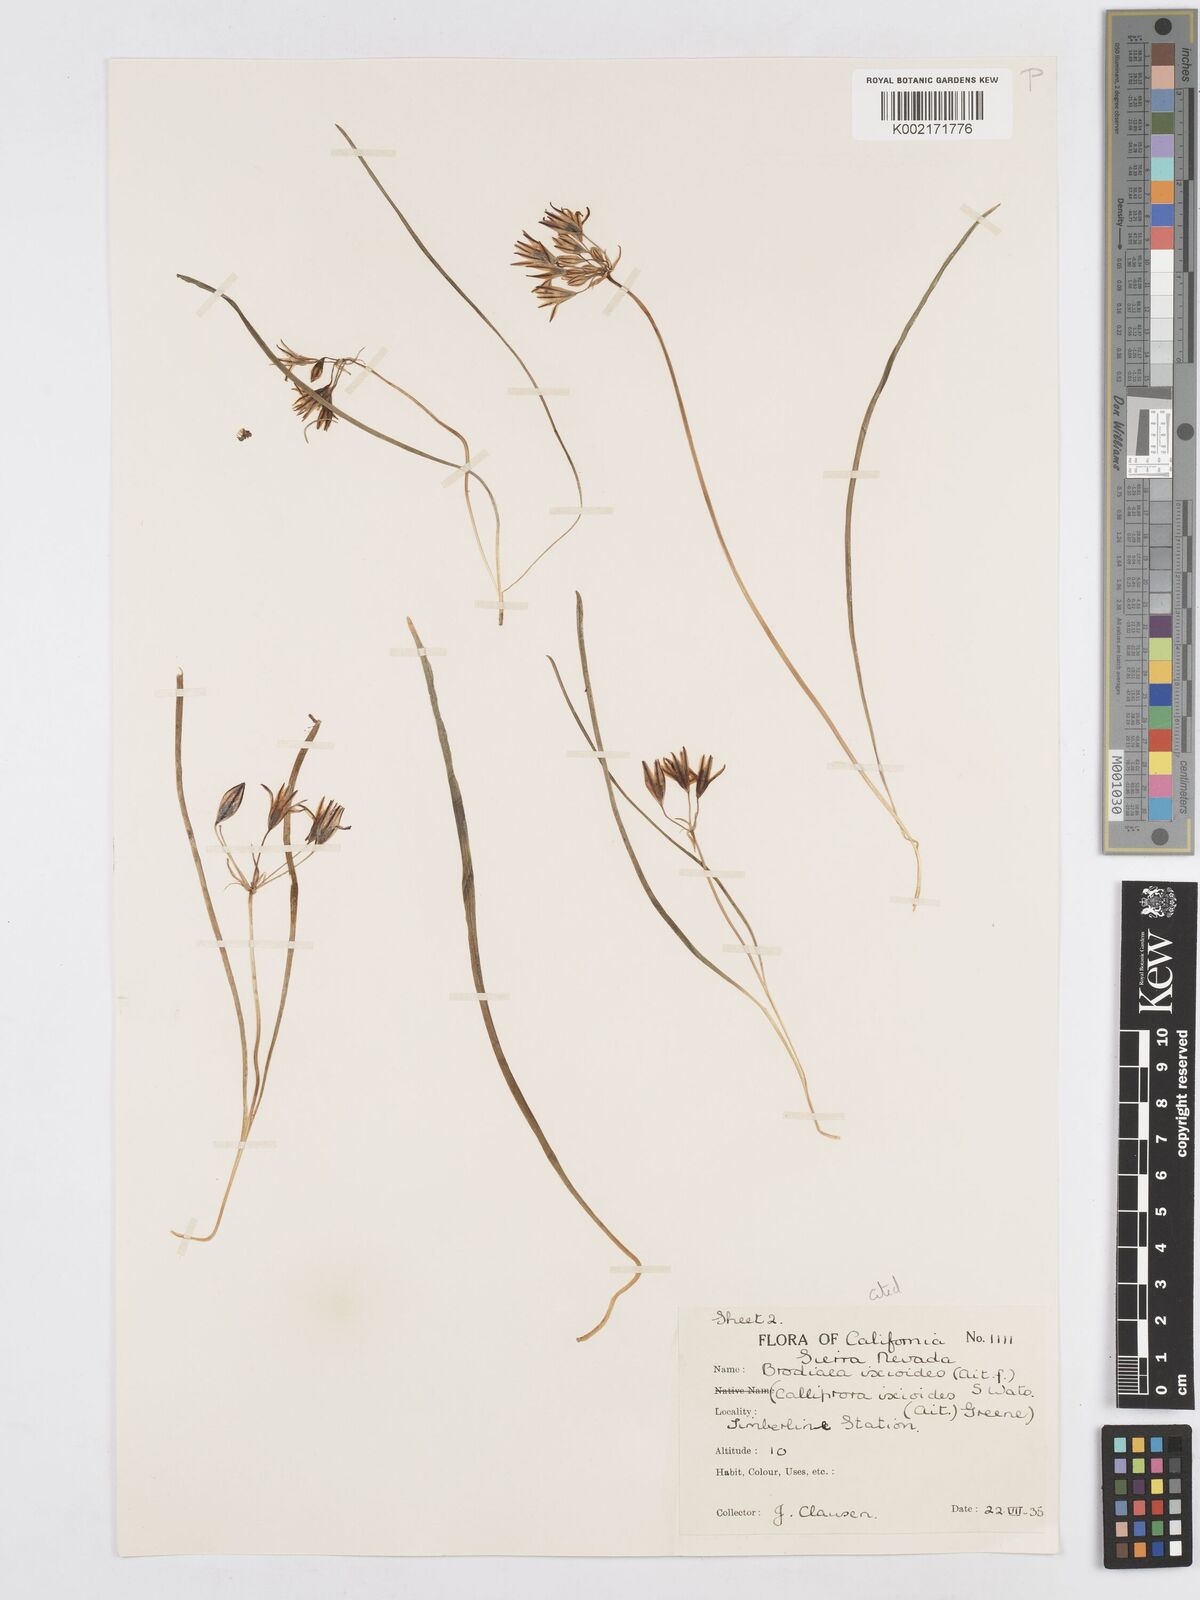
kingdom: Plantae
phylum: Tracheophyta
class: Liliopsida
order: Asparagales
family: Asparagaceae
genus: Triteleia
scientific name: Triteleia ixioides
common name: Yellow-brodiaea
